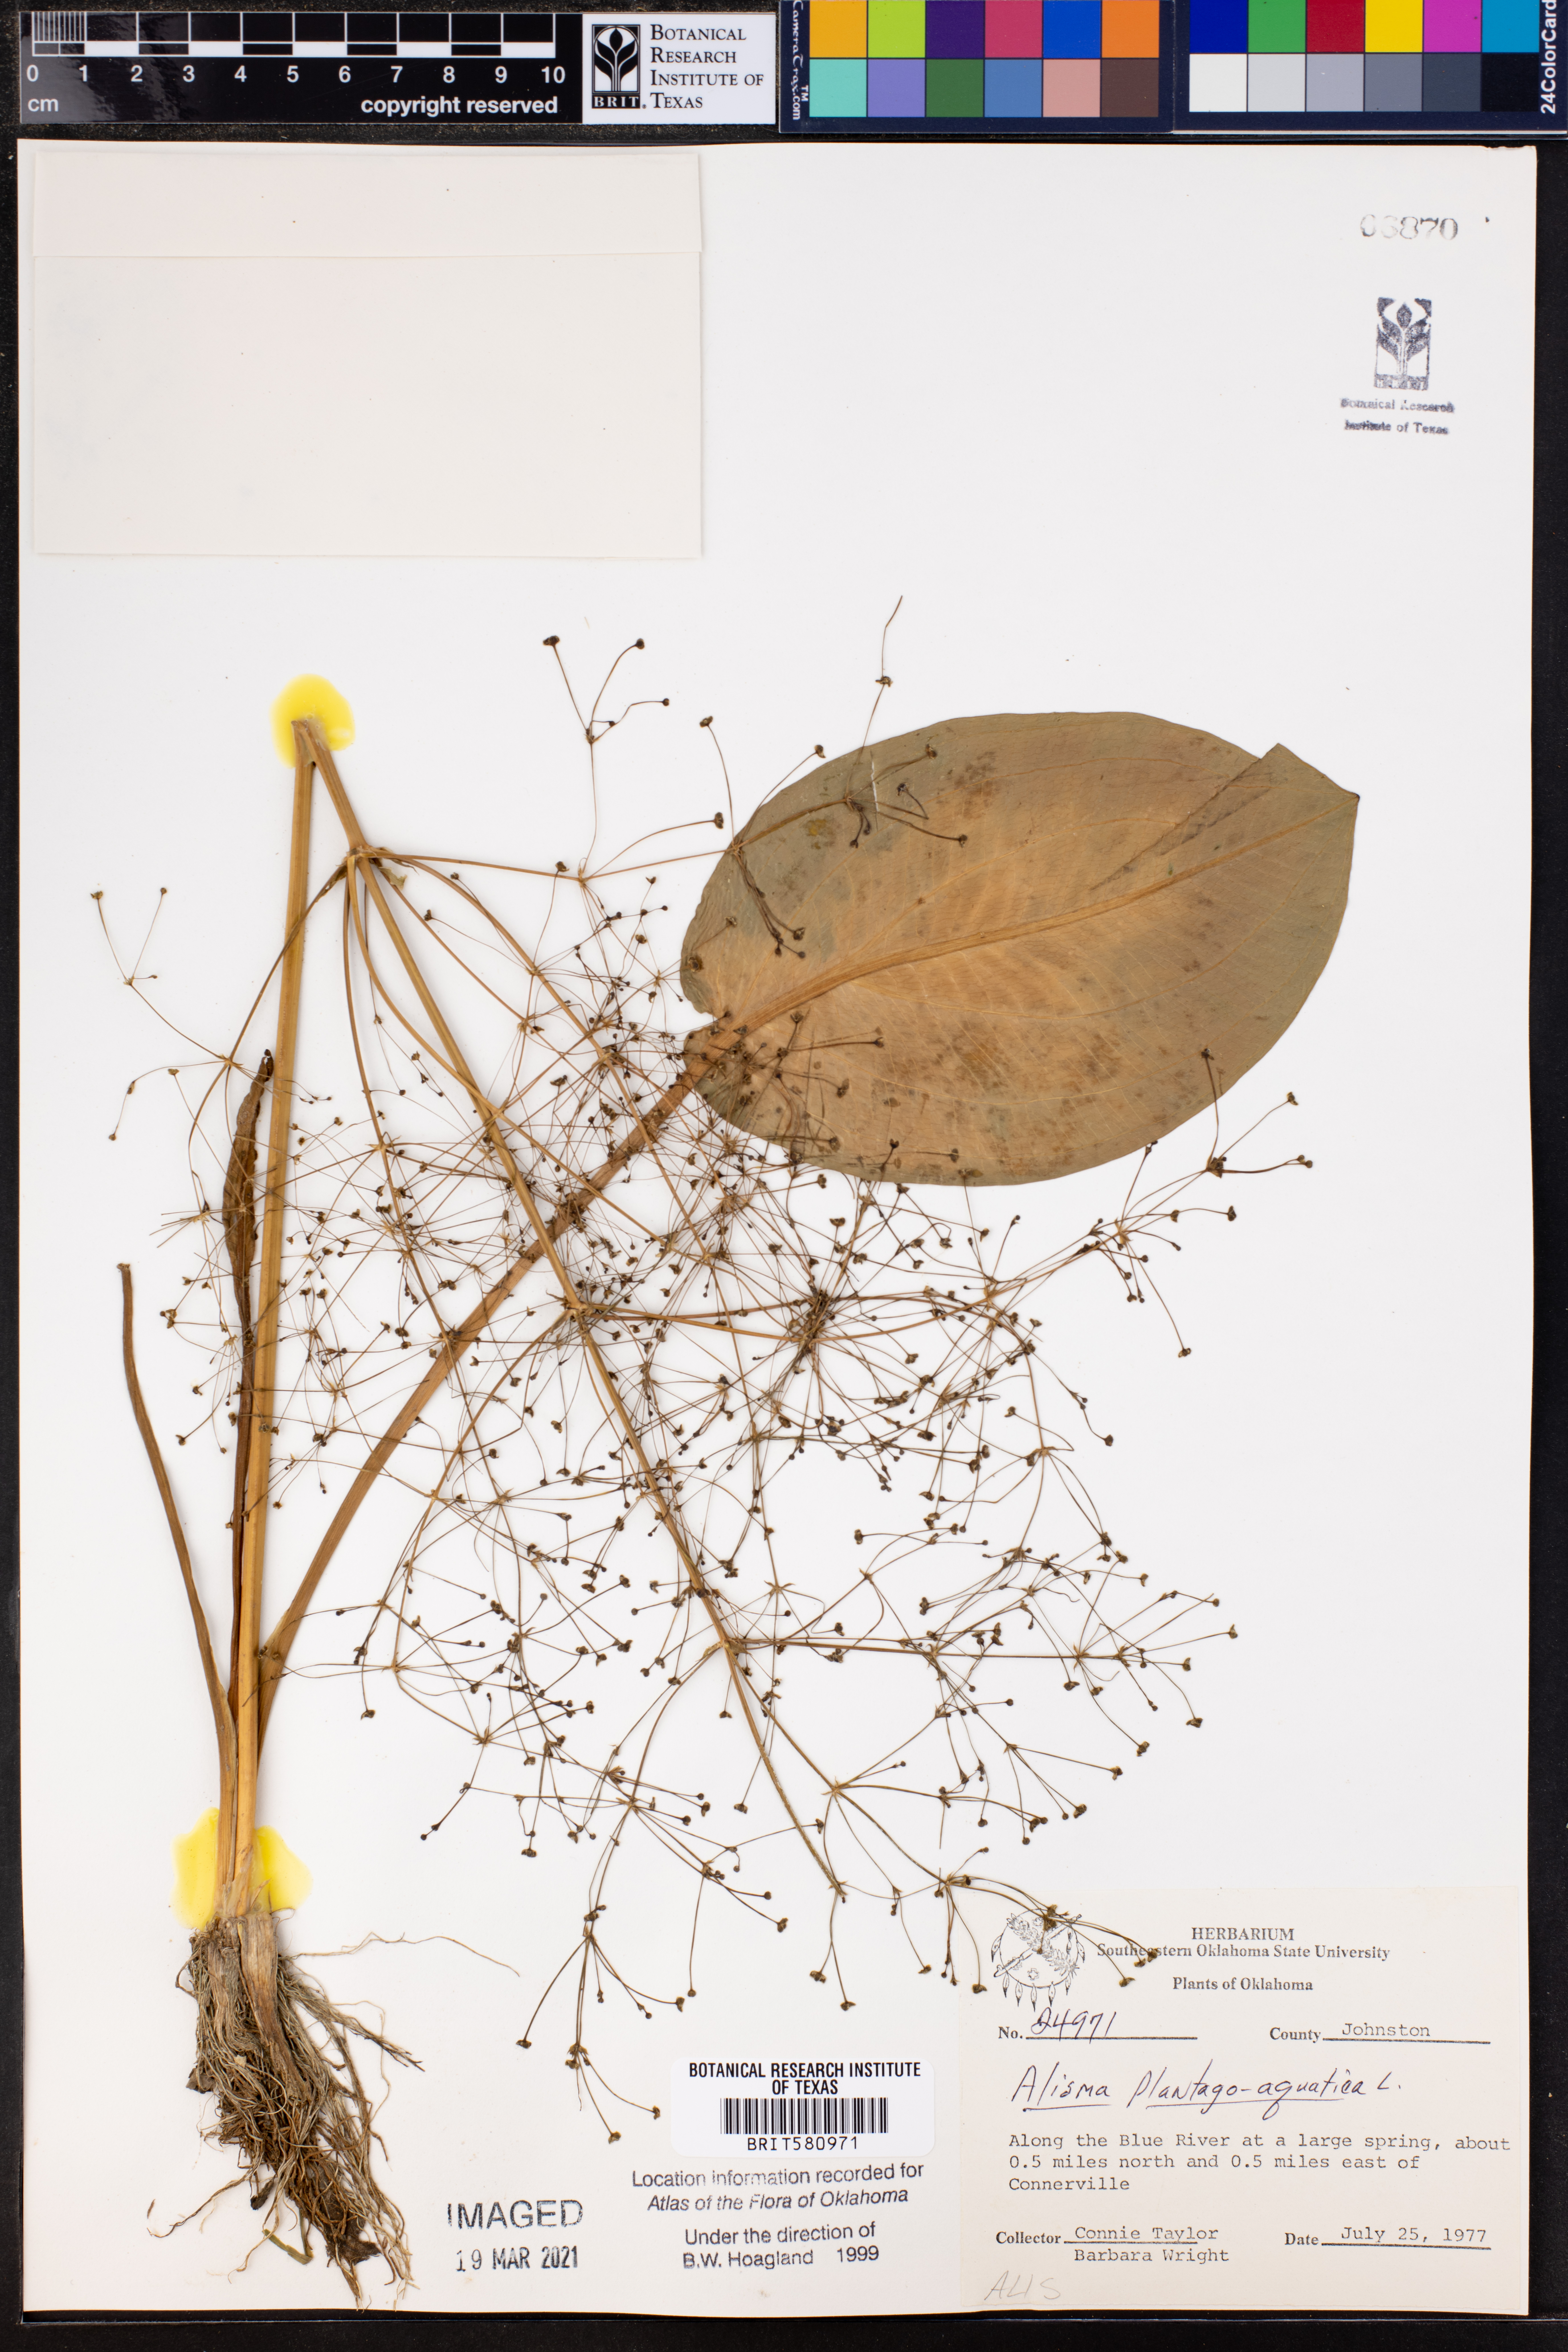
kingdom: Plantae
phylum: Tracheophyta
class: Liliopsida
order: Alismatales
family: Alismataceae
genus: Alisma
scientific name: Alisma plantago-aquatica
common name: Water-plantain
